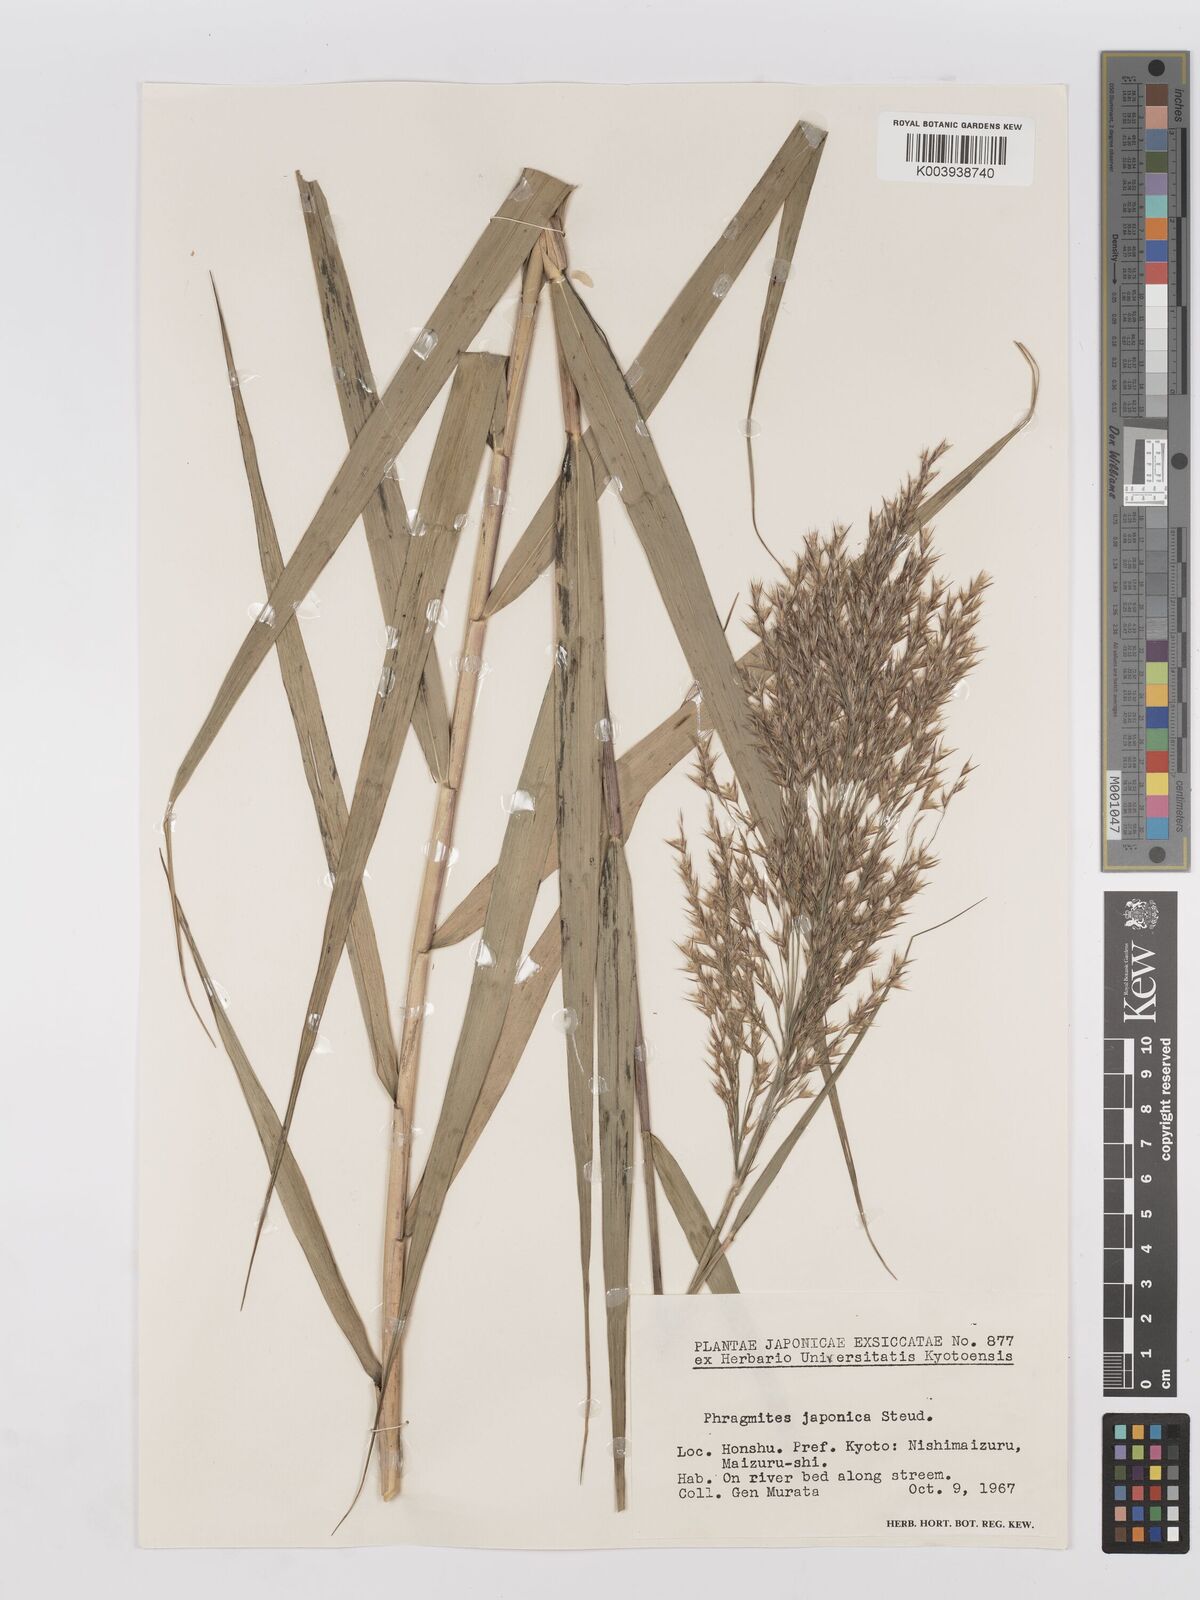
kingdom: Plantae
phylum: Tracheophyta
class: Liliopsida
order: Poales
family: Poaceae
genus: Phragmites
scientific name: Phragmites japonicus
